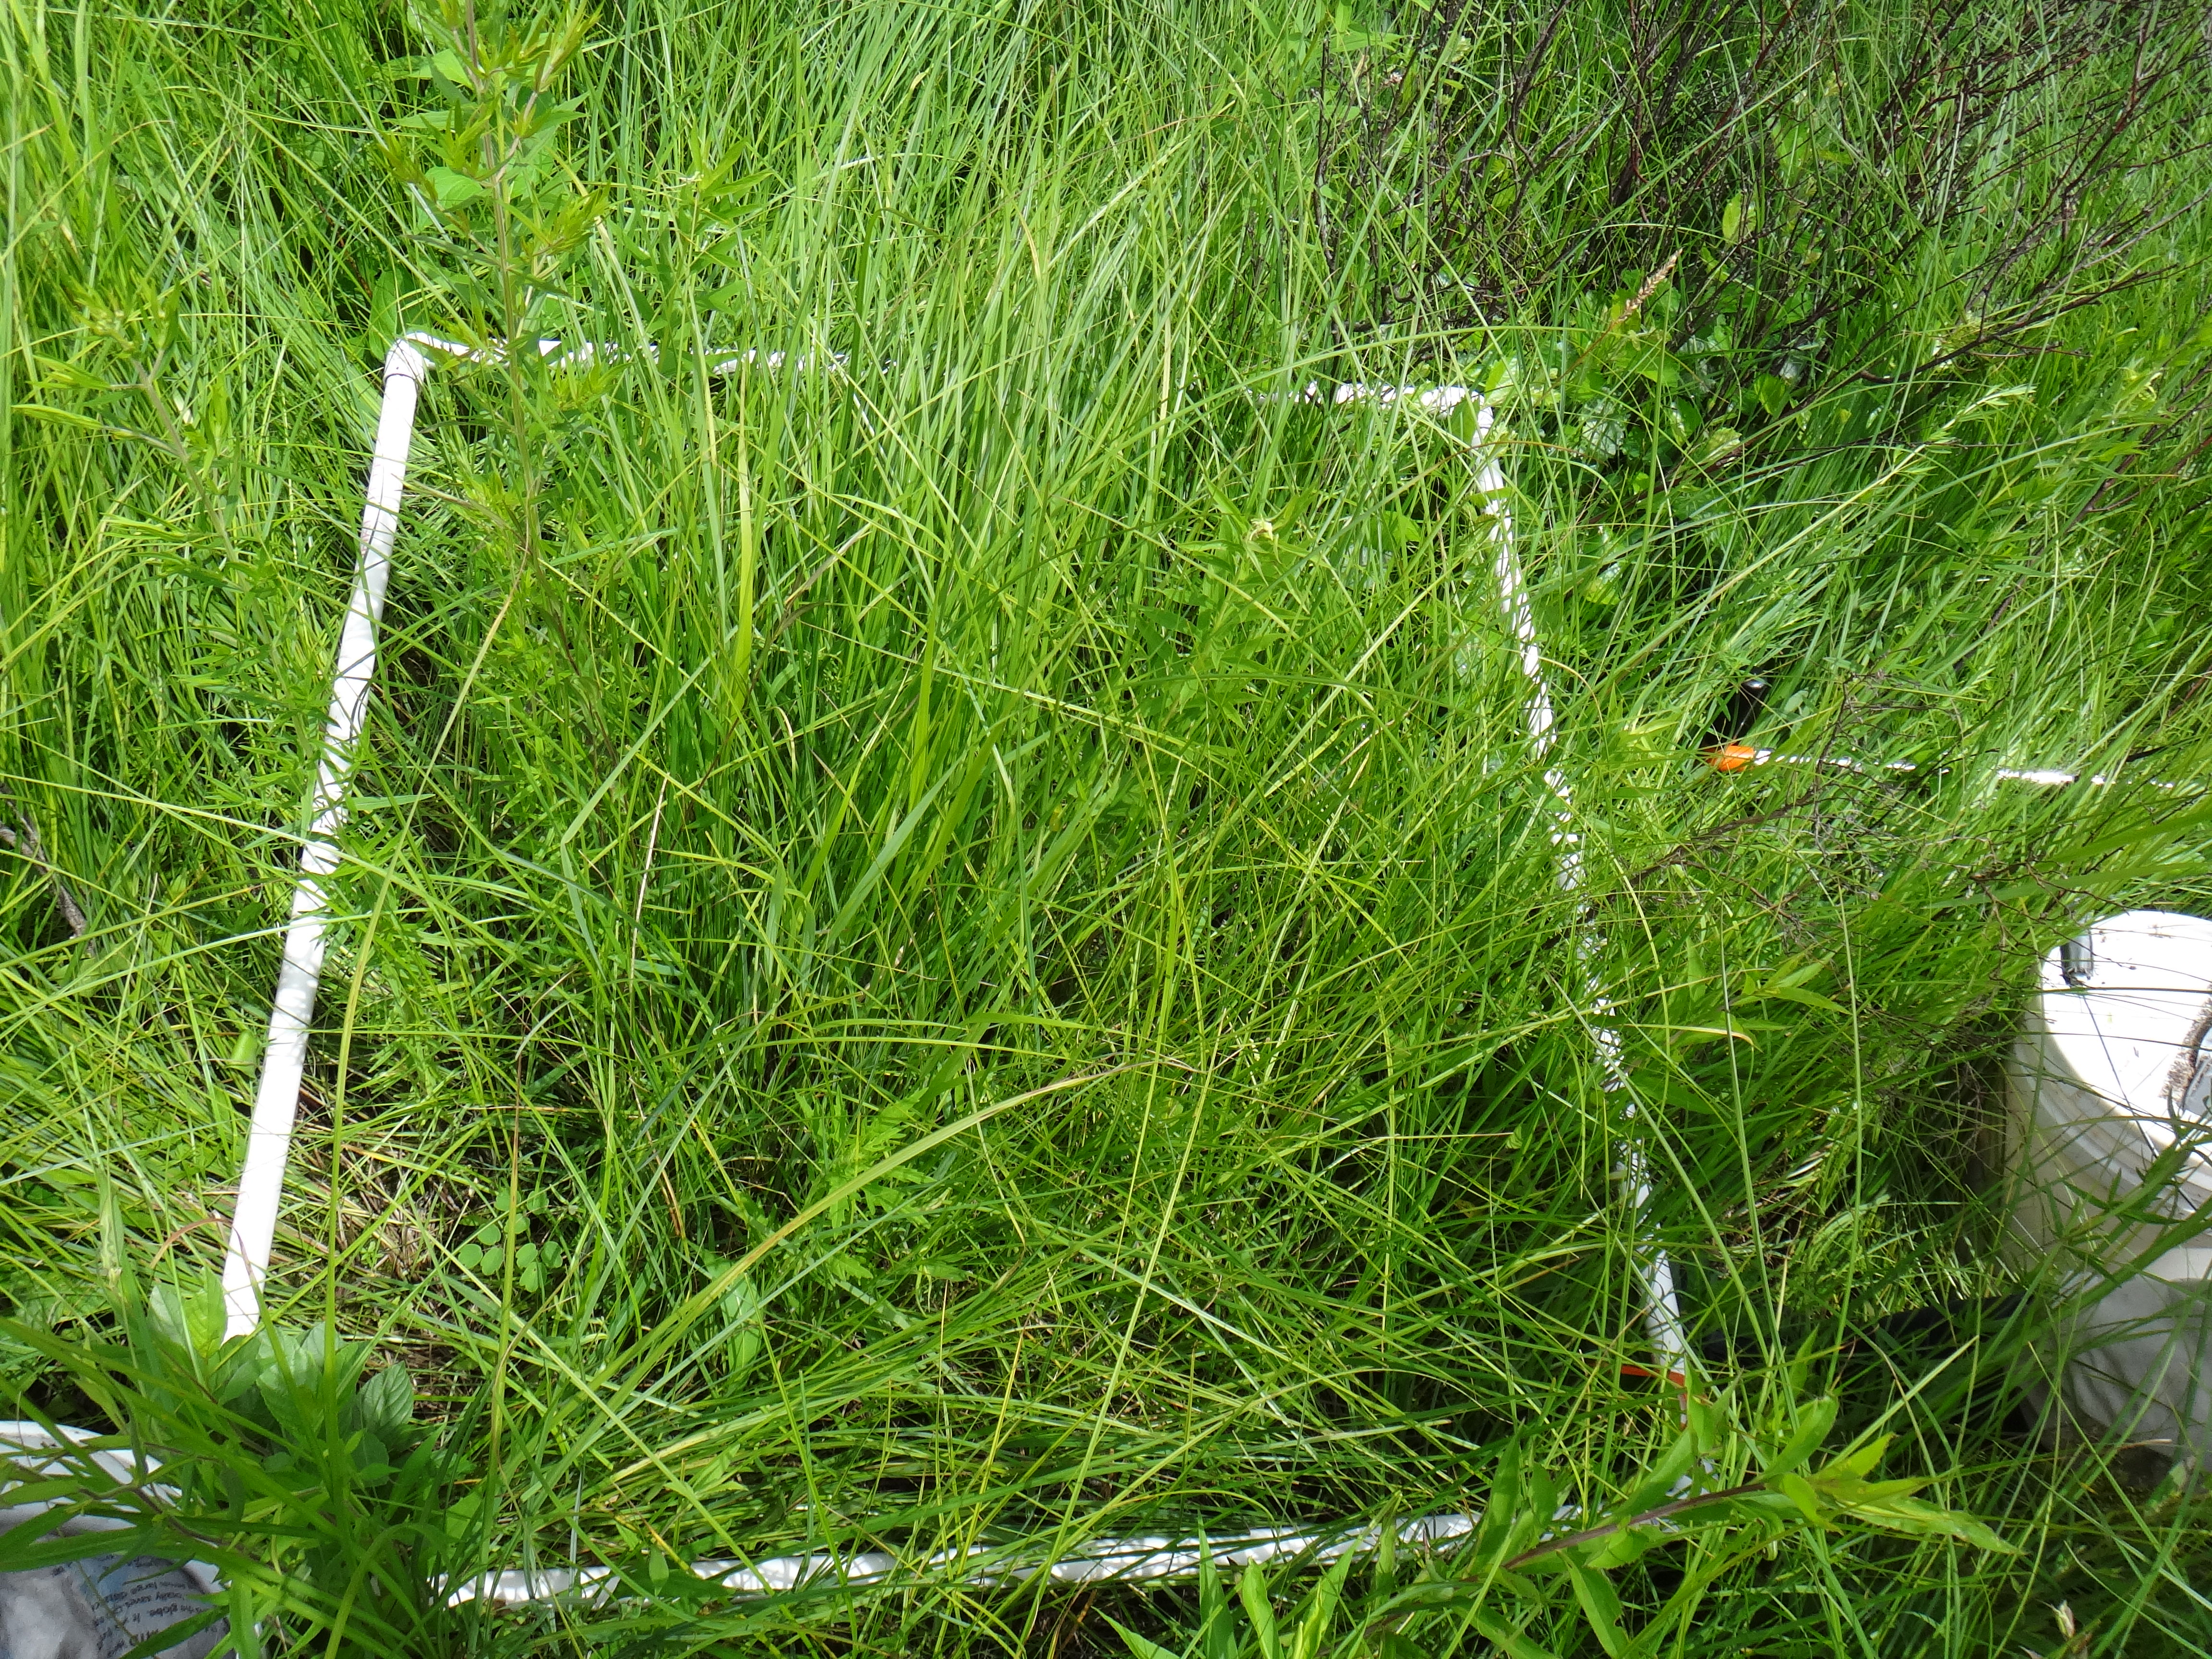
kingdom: Plantae
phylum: Tracheophyta
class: Magnoliopsida
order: Dipsacales
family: Caprifoliaceae
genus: Valeriana
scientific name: Valeriana uliginosa
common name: Marsh valerian
